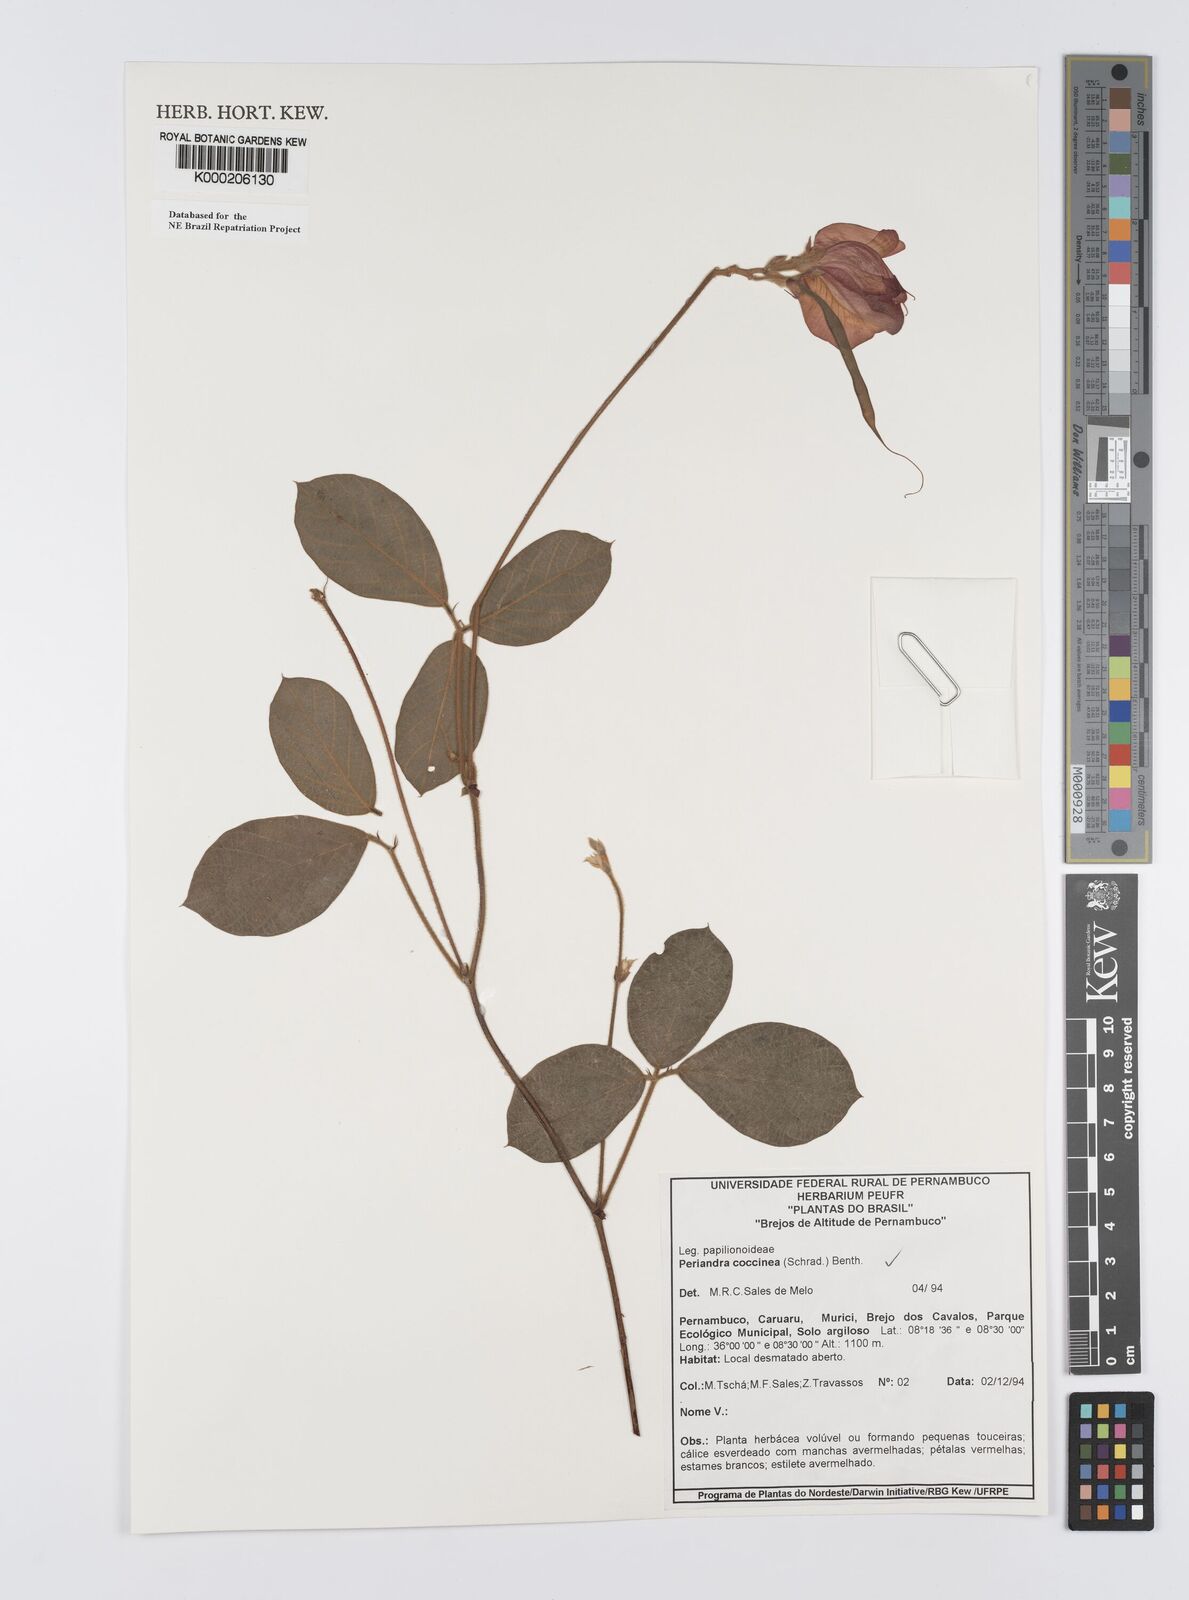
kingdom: Plantae
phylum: Tracheophyta
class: Magnoliopsida
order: Fabales
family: Fabaceae
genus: Periandra
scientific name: Periandra coccinea
